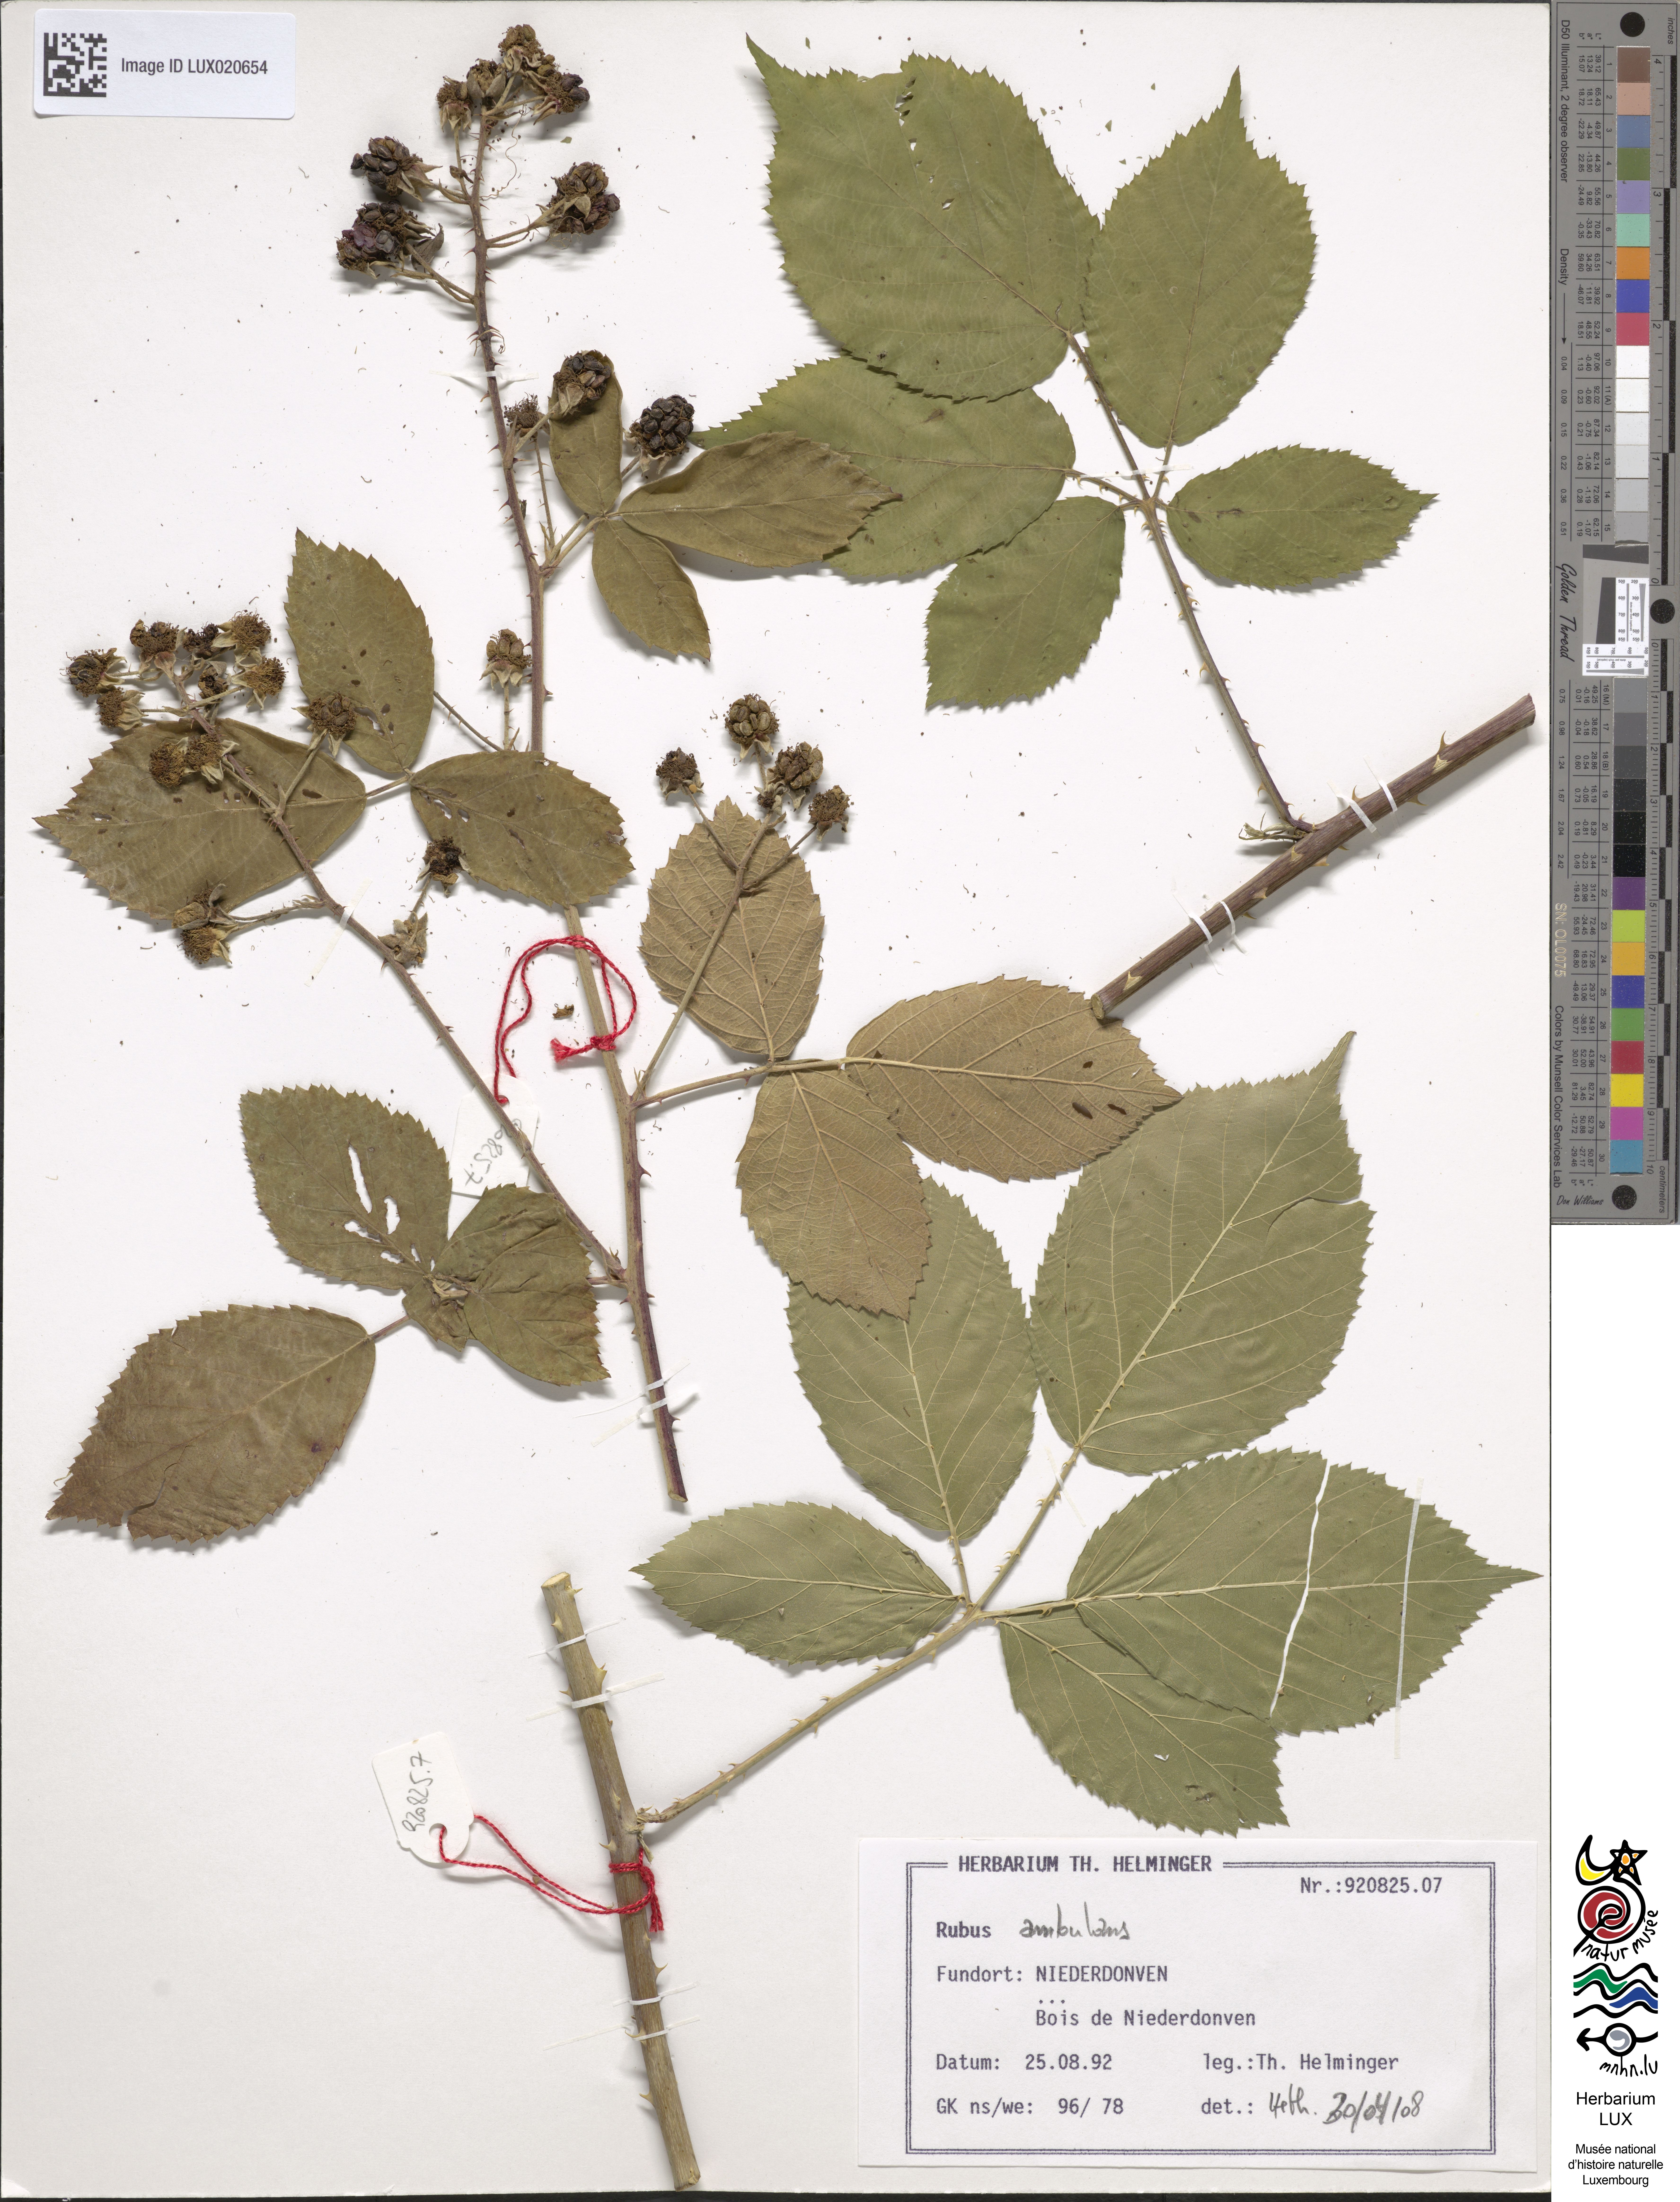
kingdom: Plantae
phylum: Tracheophyta
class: Magnoliopsida
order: Rosales
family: Rosaceae
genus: Rubus
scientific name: Rubus gremlii
